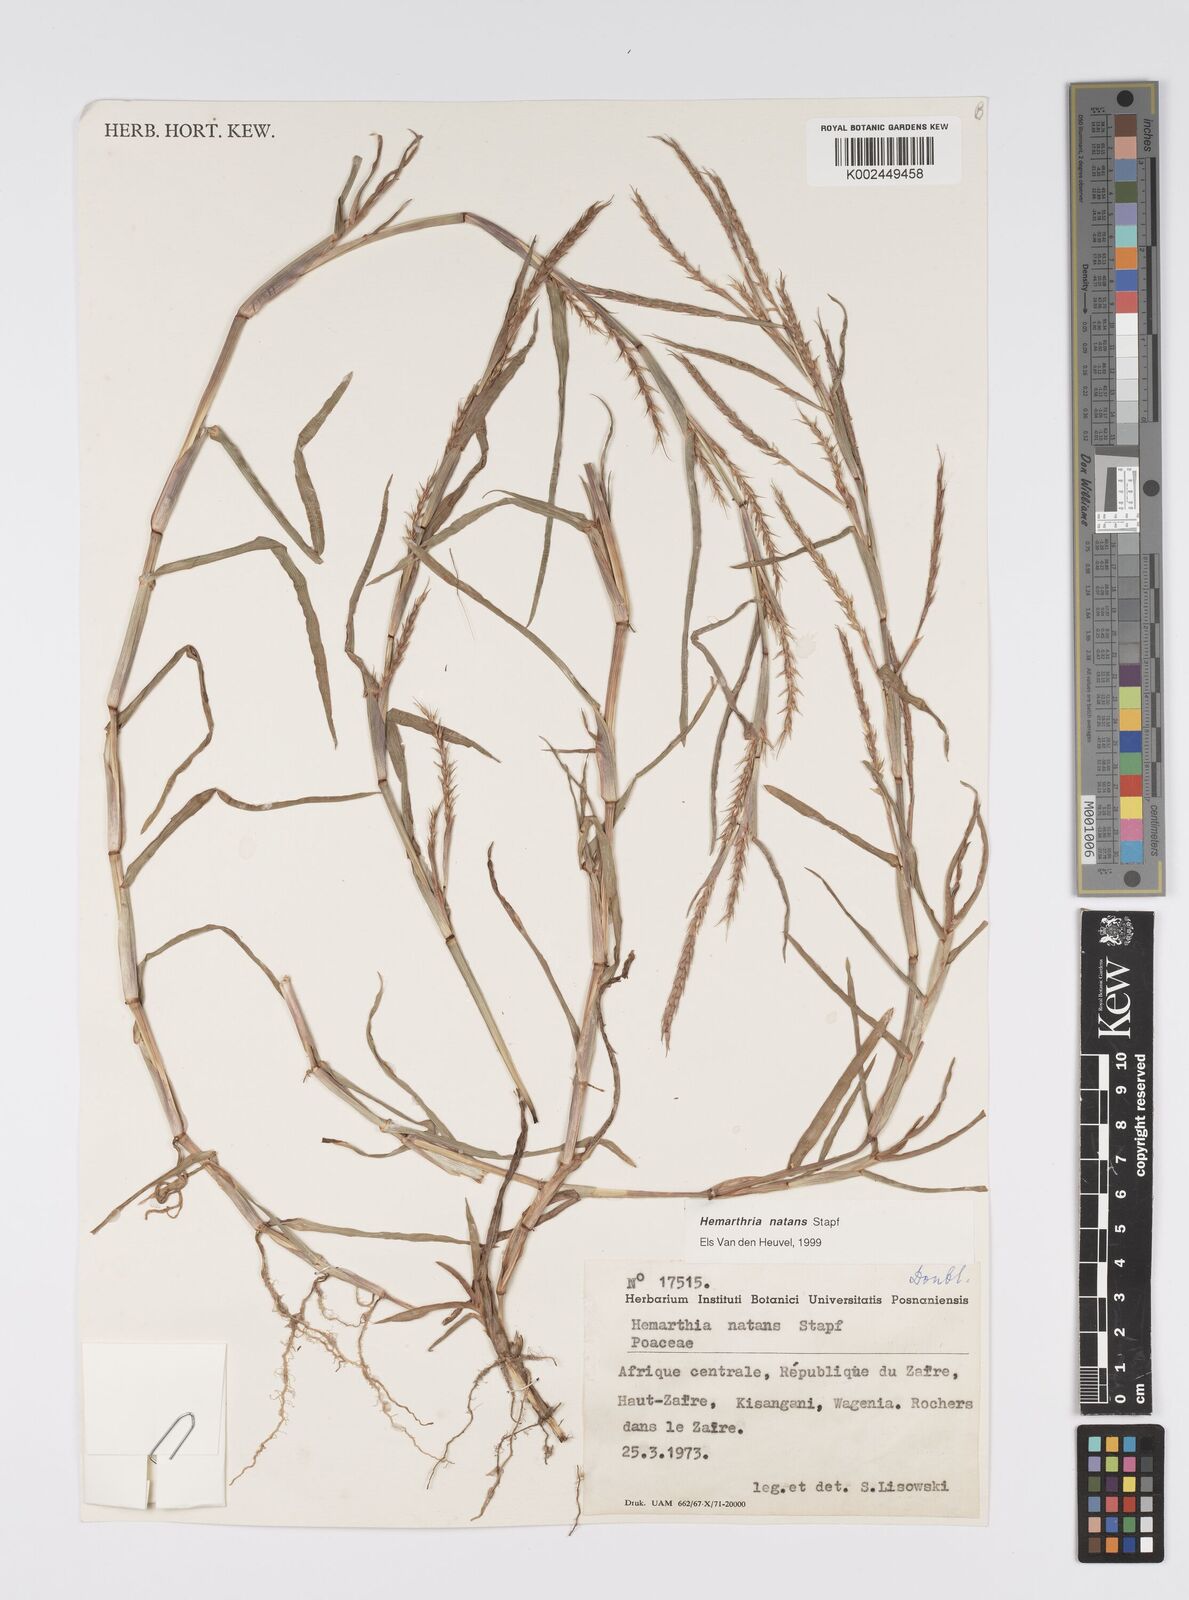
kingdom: Plantae
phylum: Tracheophyta
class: Liliopsida
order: Poales
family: Poaceae
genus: Hemarthria
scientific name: Hemarthria natans
